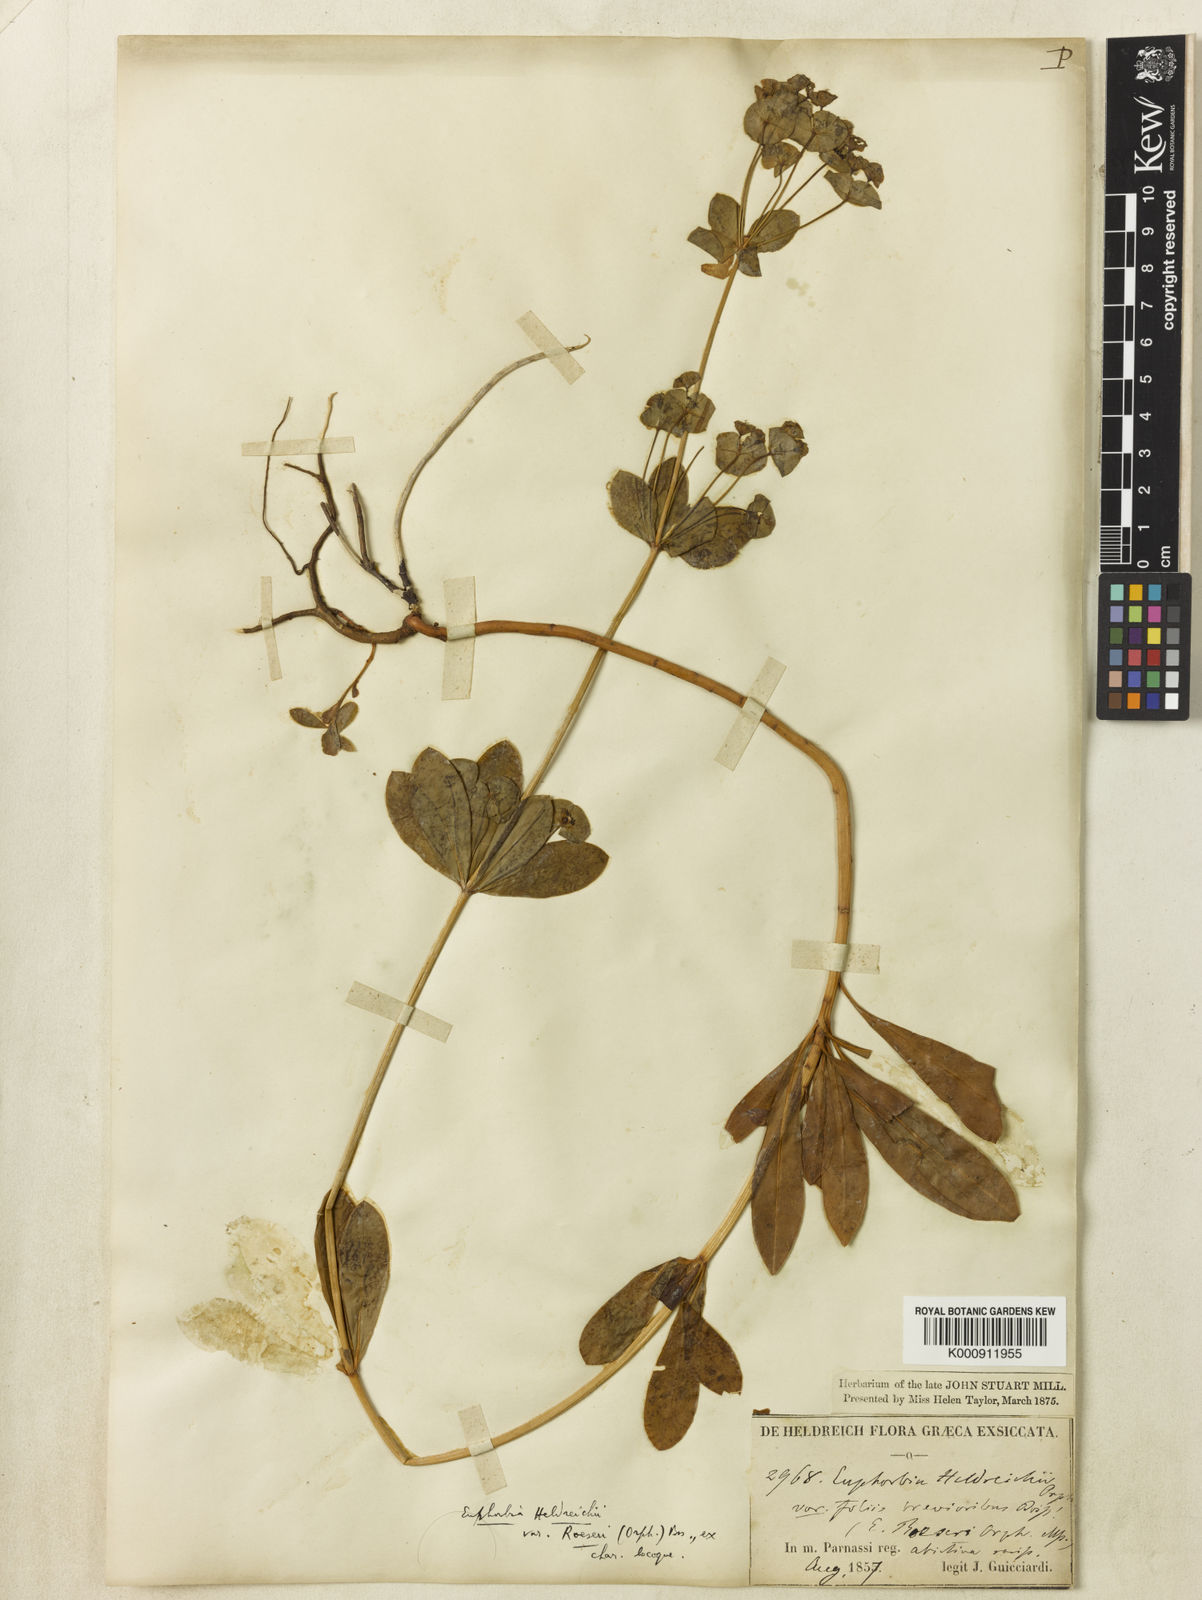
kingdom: Plantae
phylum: Tracheophyta
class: Magnoliopsida
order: Malpighiales
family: Euphorbiaceae
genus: Euphorbia
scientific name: Euphorbia heldreichii
